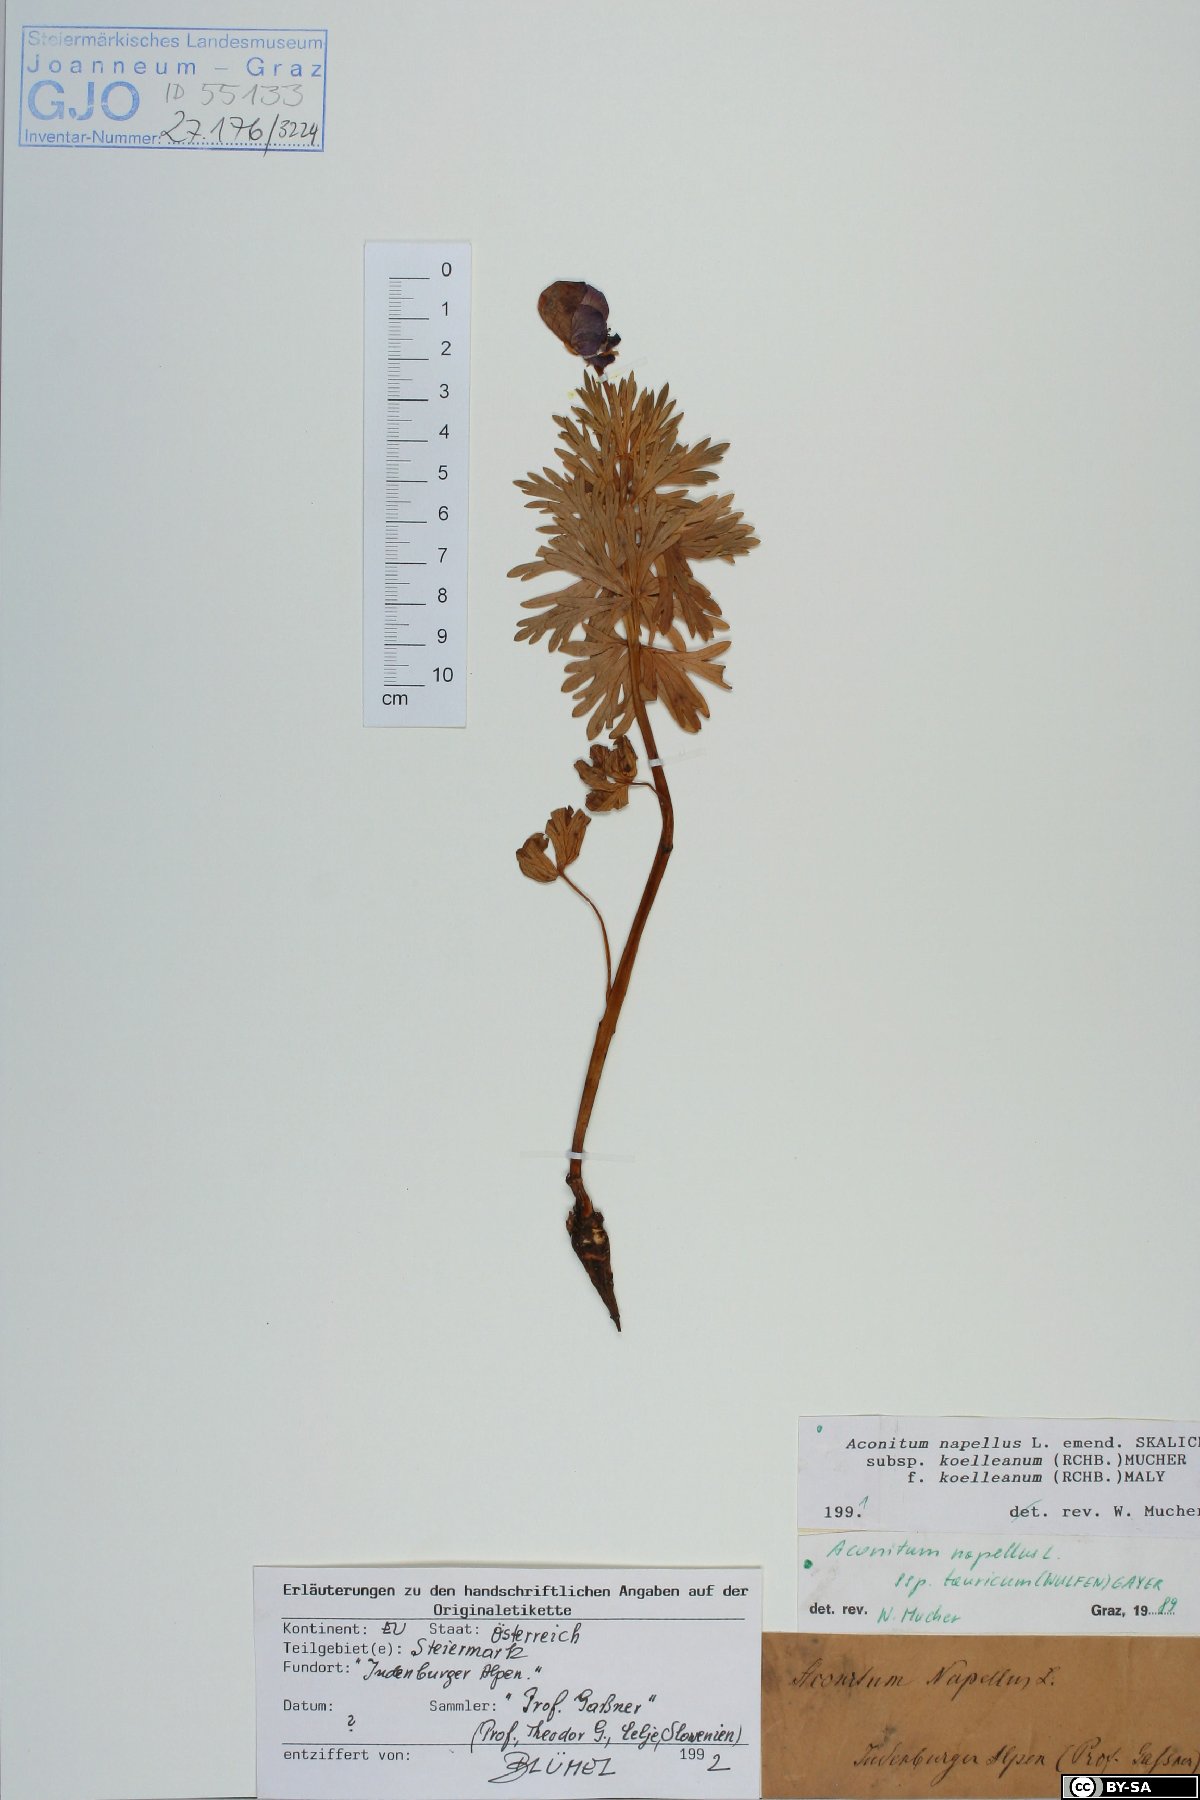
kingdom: Plantae
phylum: Tracheophyta
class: Magnoliopsida
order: Ranunculales
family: Ranunculaceae
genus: Aconitum
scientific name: Aconitum tauricum
